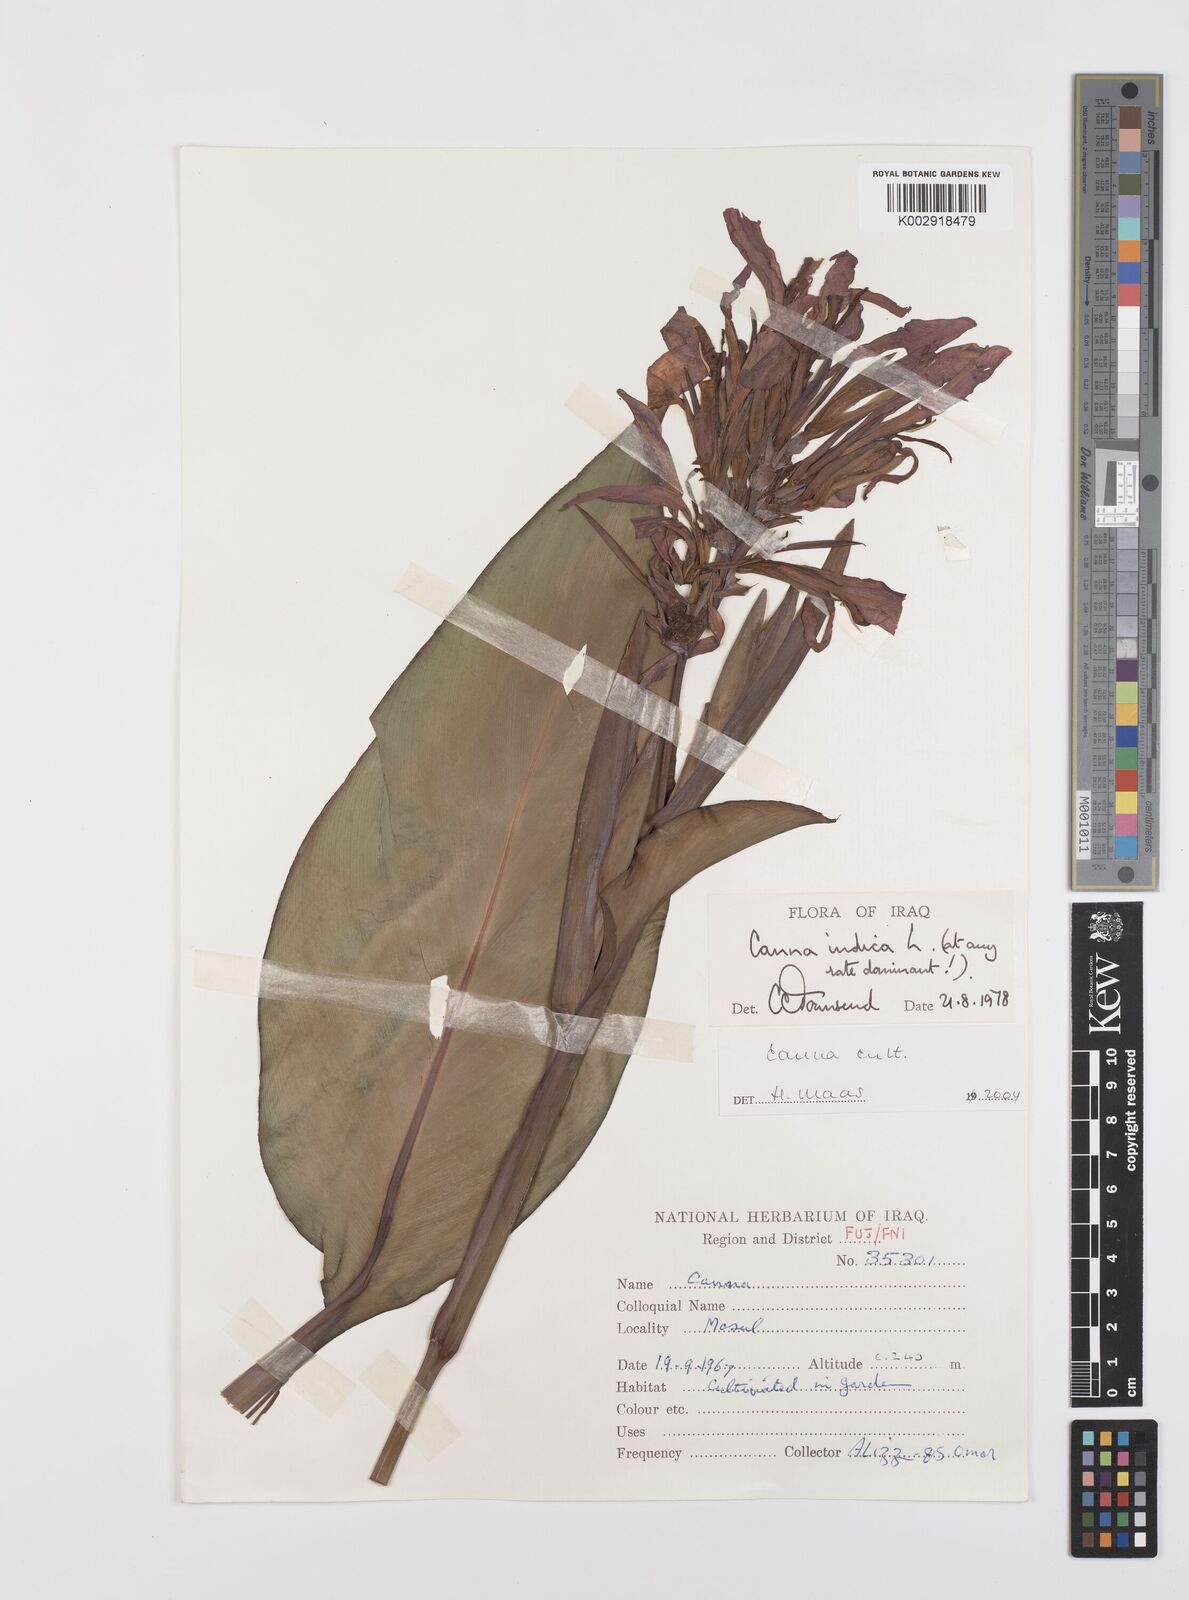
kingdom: Plantae
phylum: Tracheophyta
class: Liliopsida
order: Zingiberales
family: Cannaceae
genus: Canna
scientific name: Canna indica
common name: Indian shot
